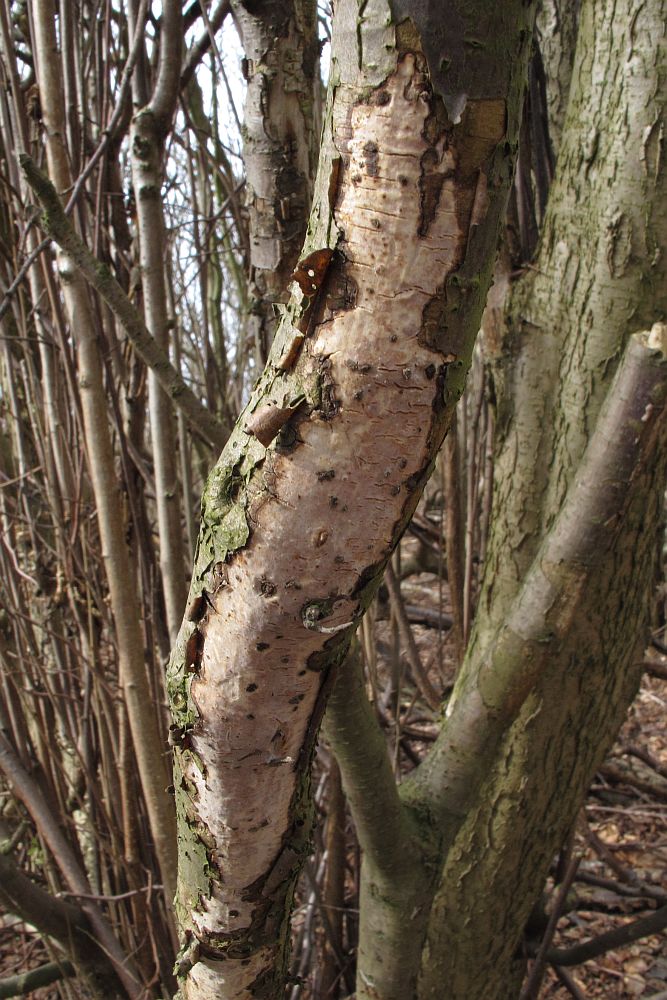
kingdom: Fungi
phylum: Basidiomycota
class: Agaricomycetes
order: Corticiales
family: Vuilleminiaceae
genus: Vuilleminia
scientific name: Vuilleminia coryli
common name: hassel-barksprænger
